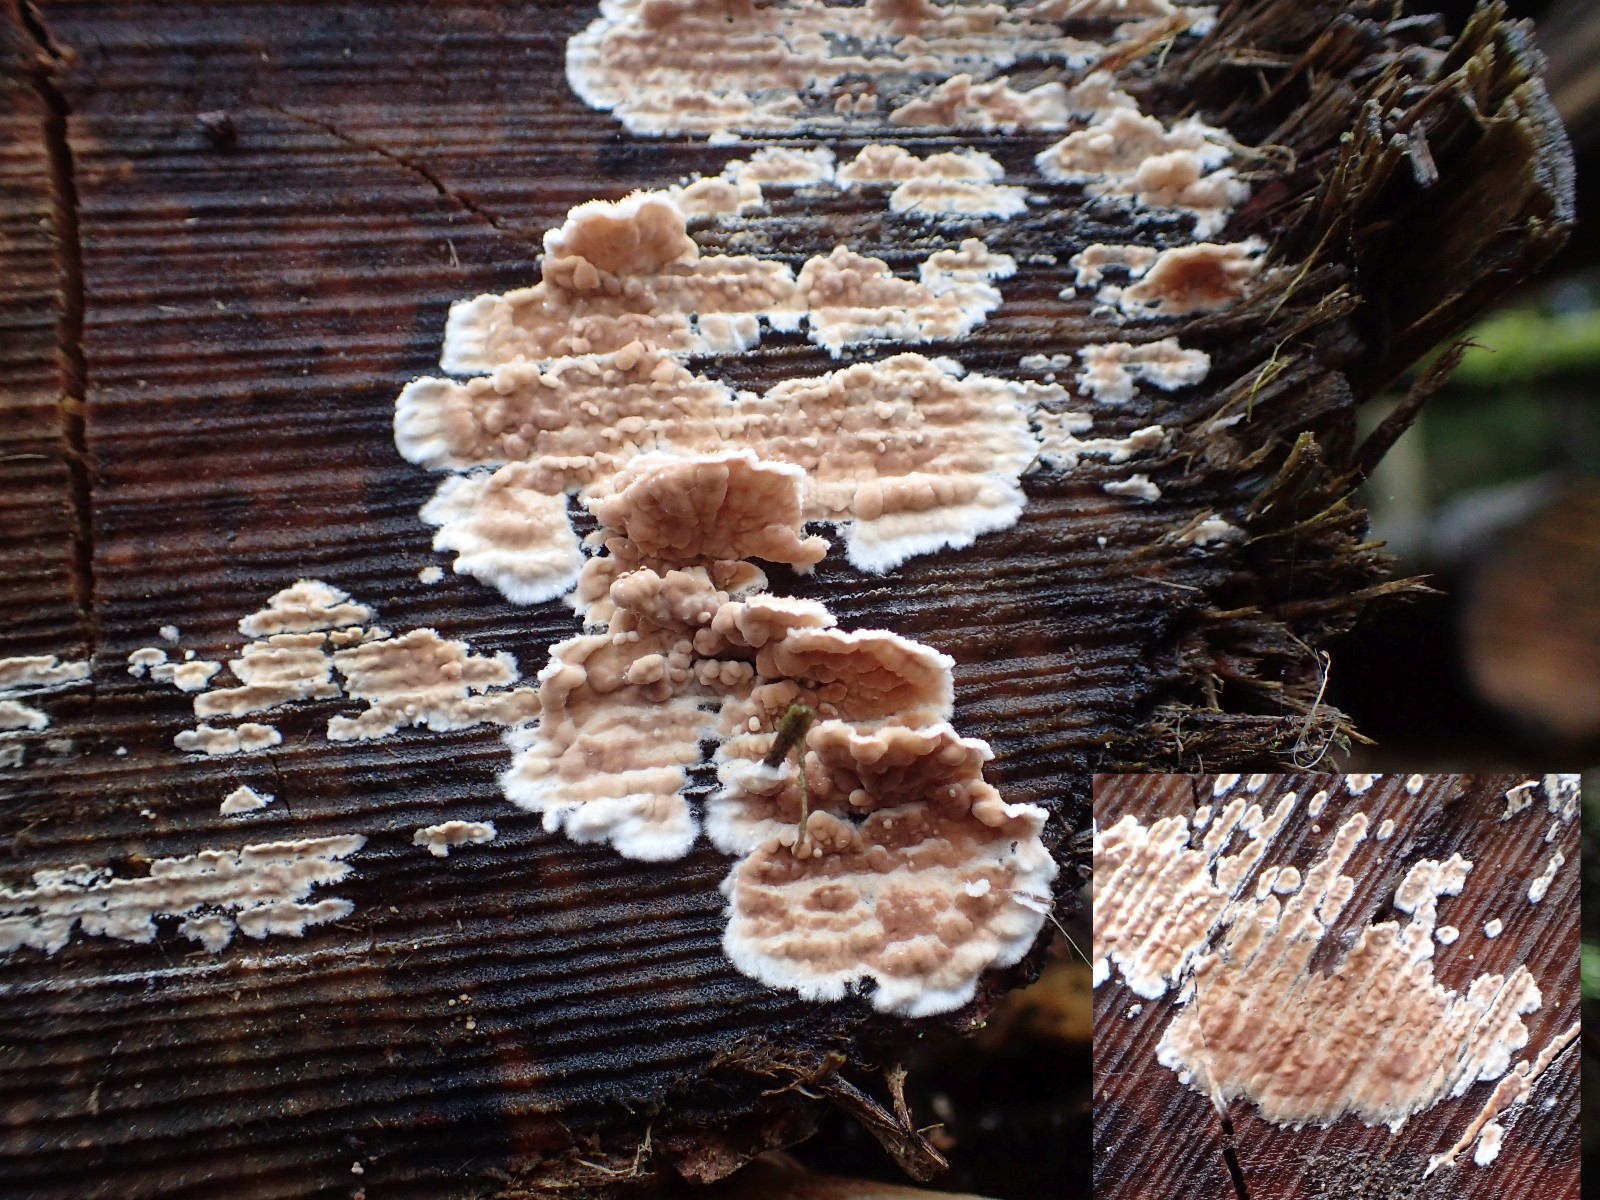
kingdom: Fungi
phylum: Basidiomycota
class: Agaricomycetes
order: Agaricales
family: Physalacriaceae
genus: Cylindrobasidium
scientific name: Cylindrobasidium evolvens
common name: sprækkehinde
